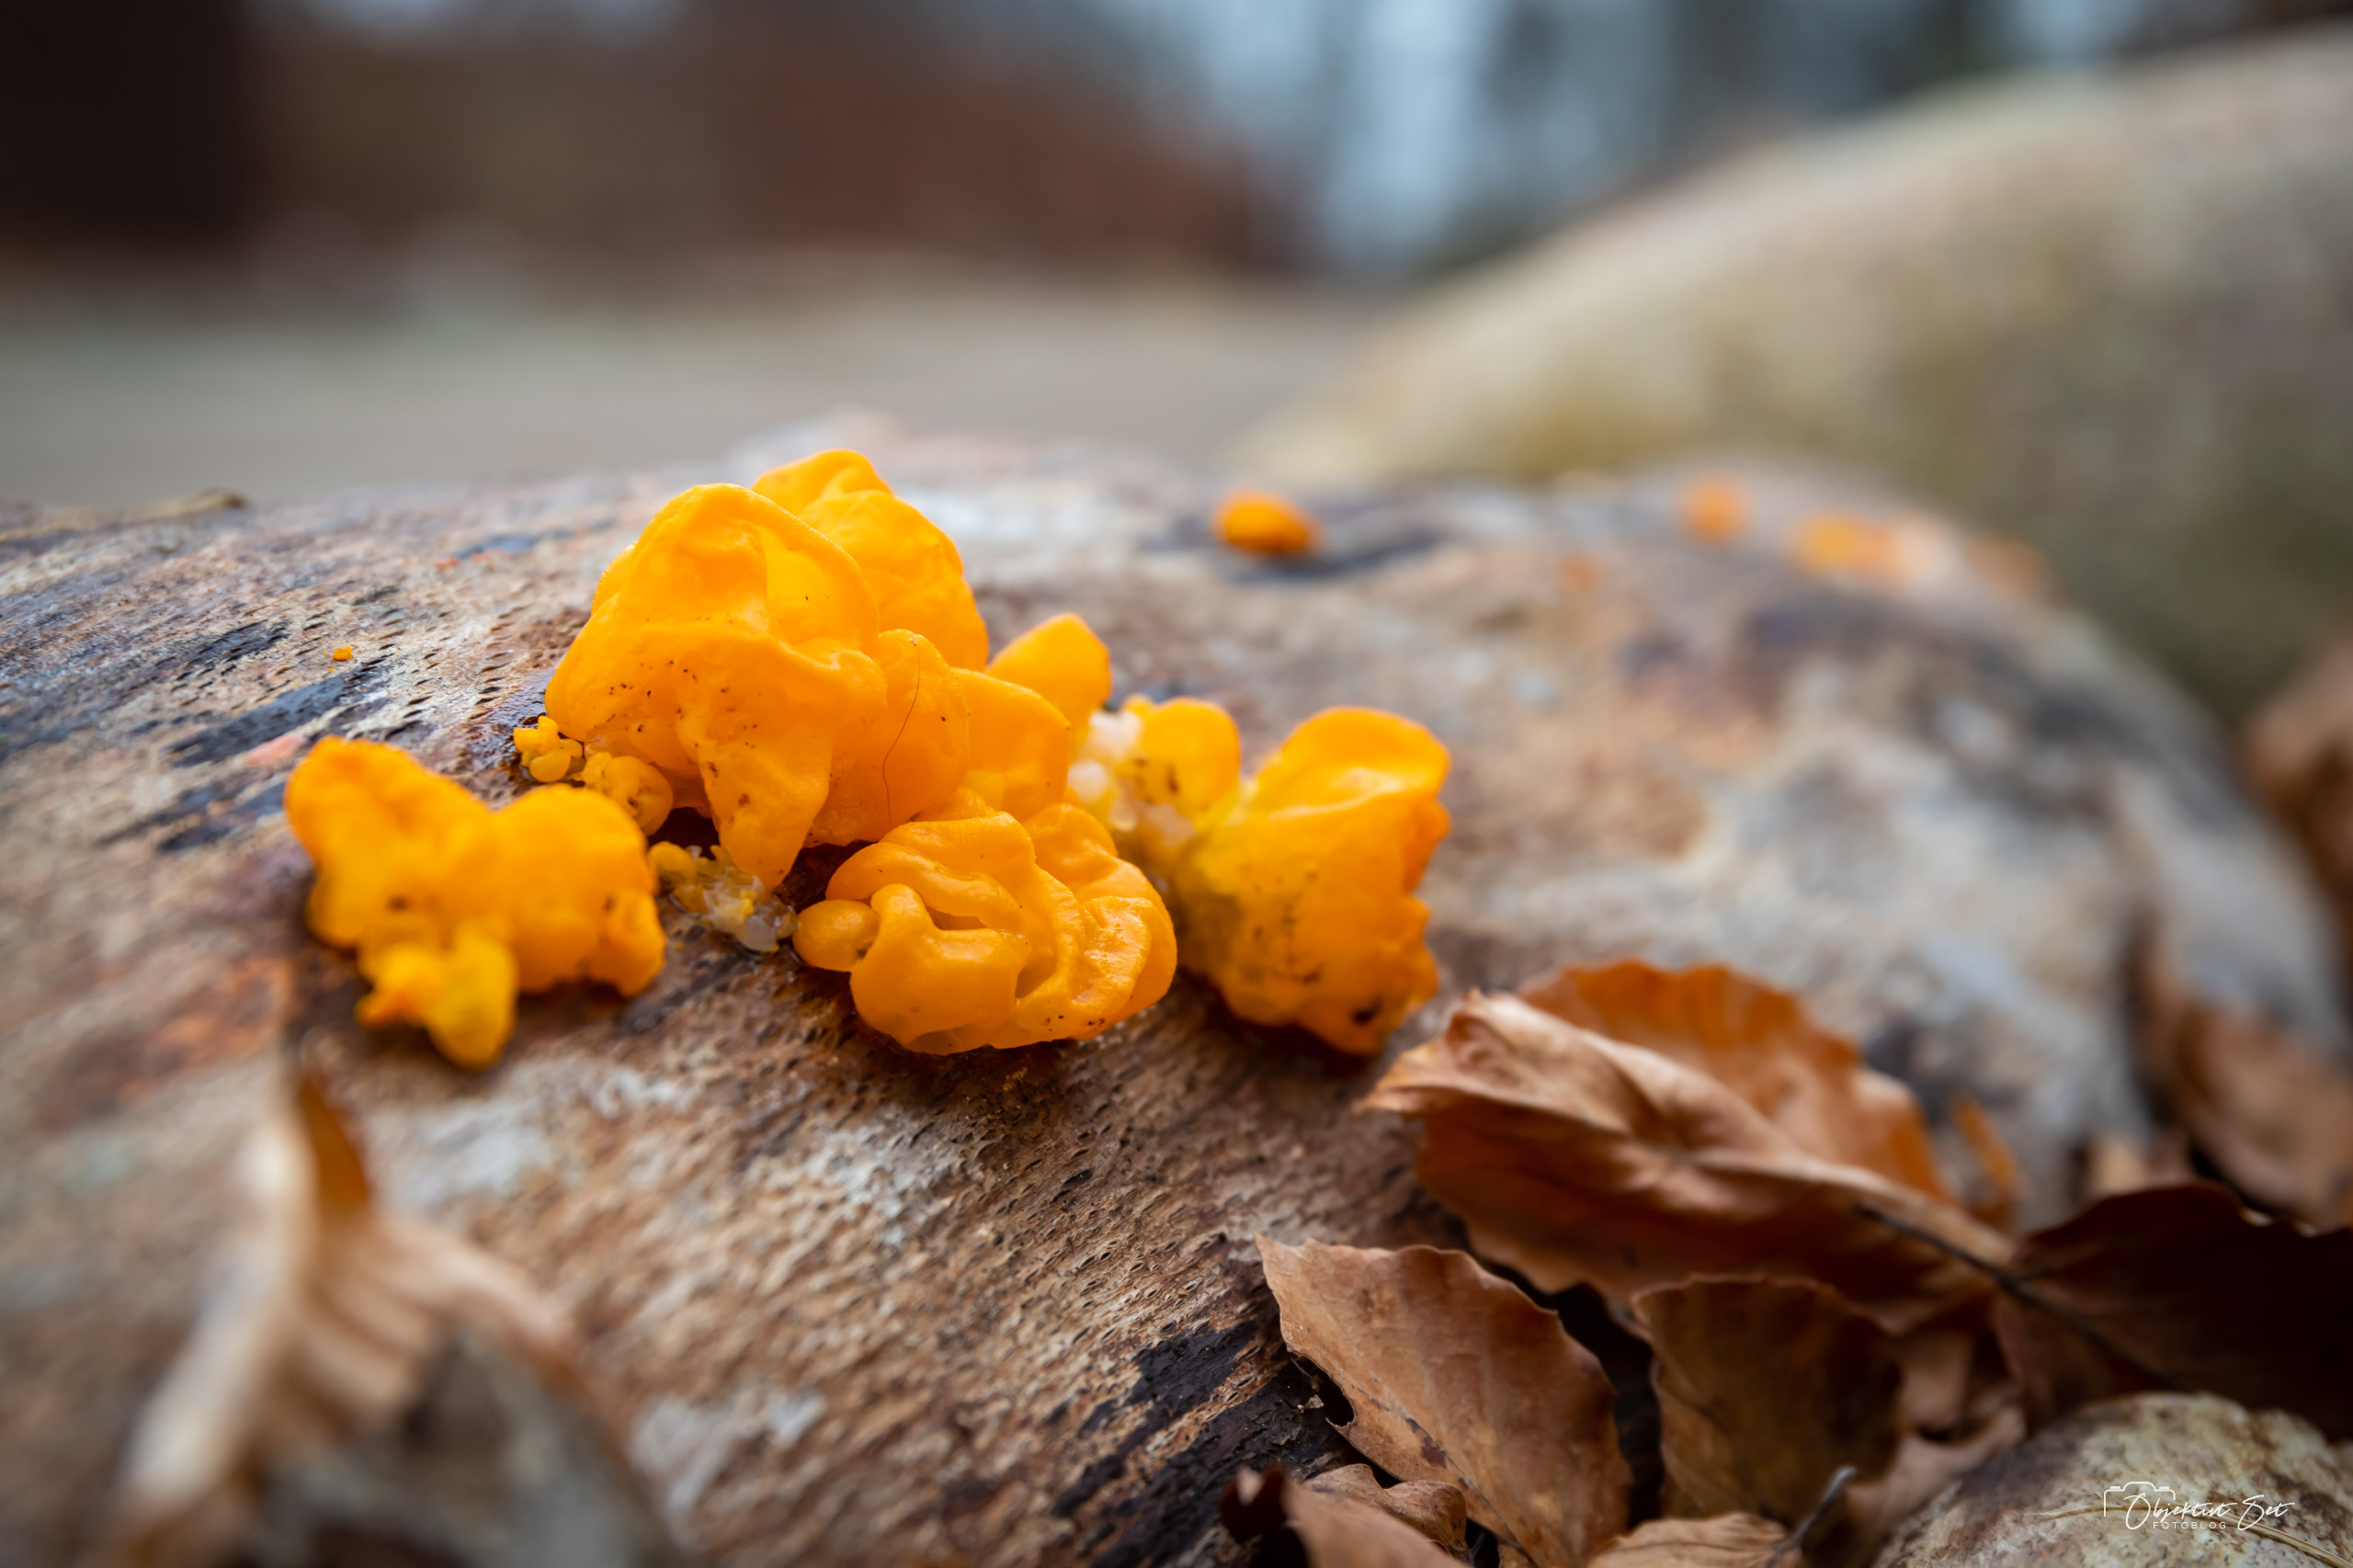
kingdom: Fungi
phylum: Basidiomycota
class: Tremellomycetes
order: Tremellales
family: Tremellaceae
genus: Tremella
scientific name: Tremella mesenterica
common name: Gul bævresvamp
